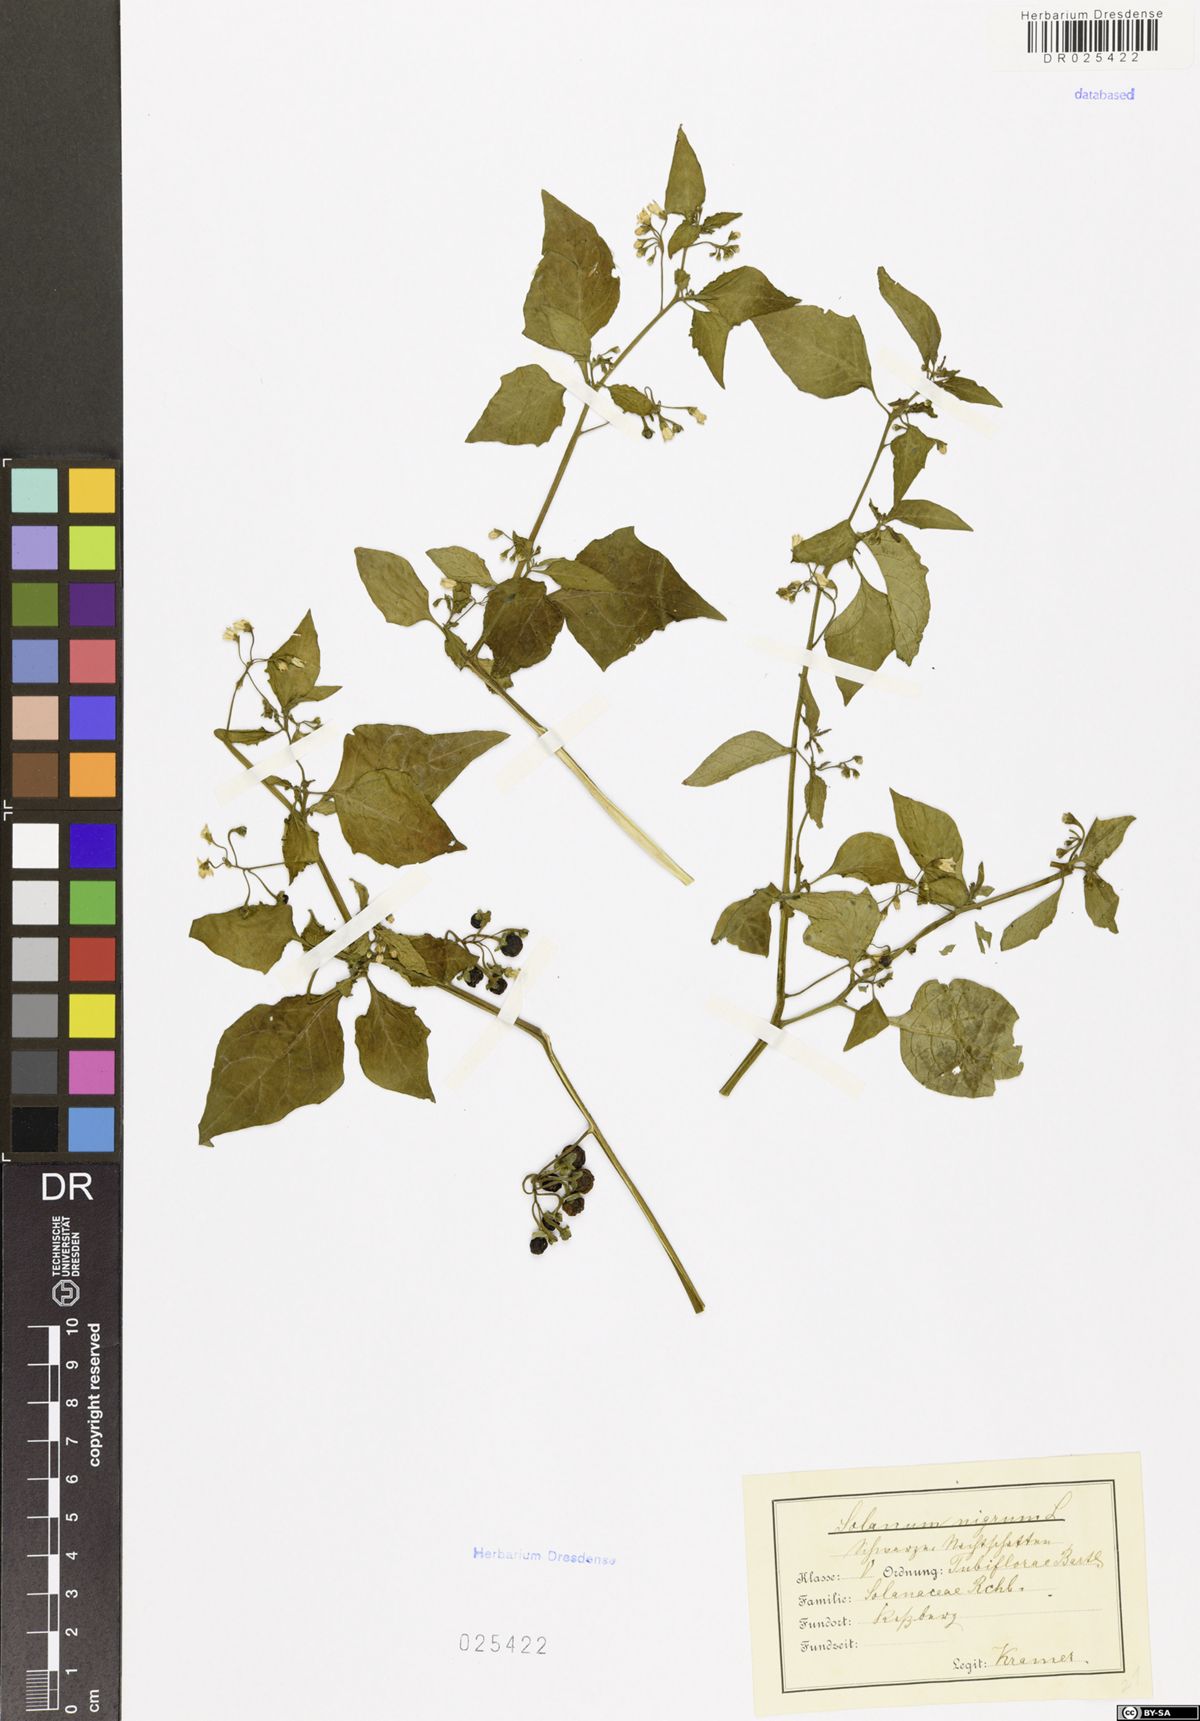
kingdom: Plantae
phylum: Tracheophyta
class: Magnoliopsida
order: Solanales
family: Solanaceae
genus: Solanum
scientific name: Solanum nigrum
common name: Black nightshade
